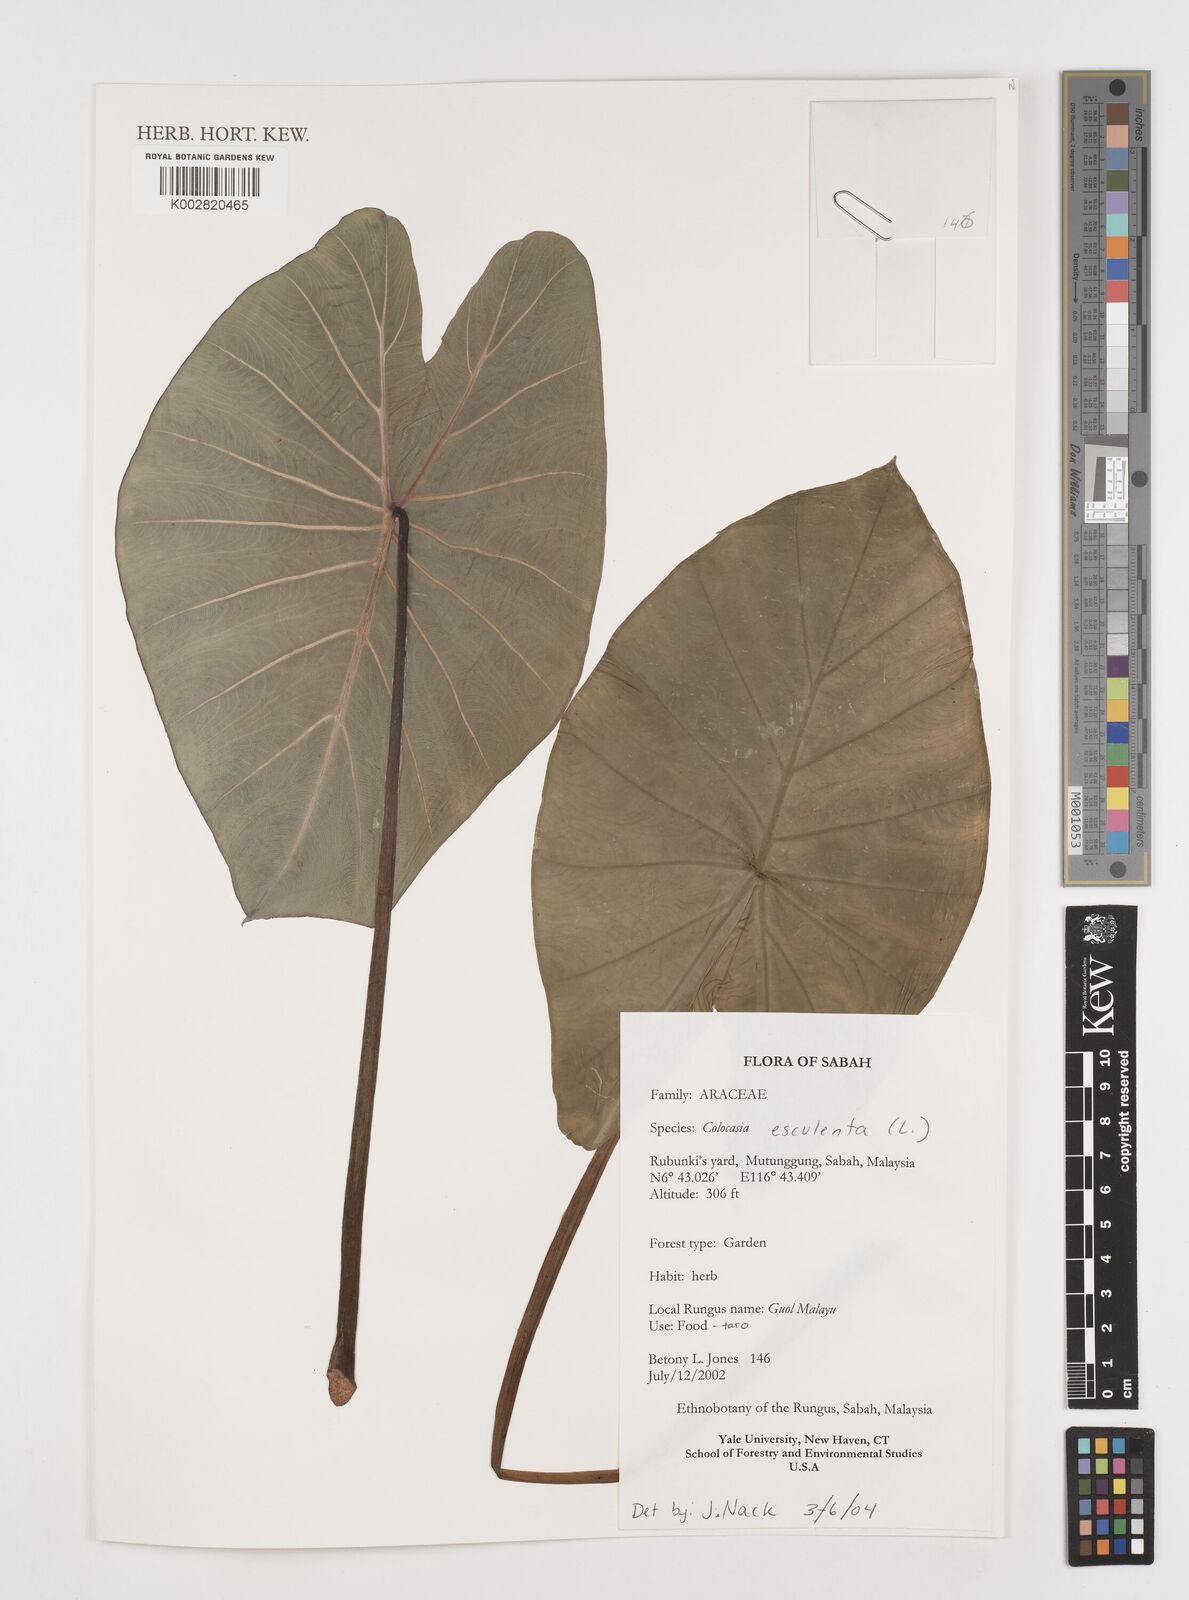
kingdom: Plantae
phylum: Tracheophyta
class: Liliopsida
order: Alismatales
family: Araceae
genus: Colocasia
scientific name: Colocasia esculenta
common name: Taro
